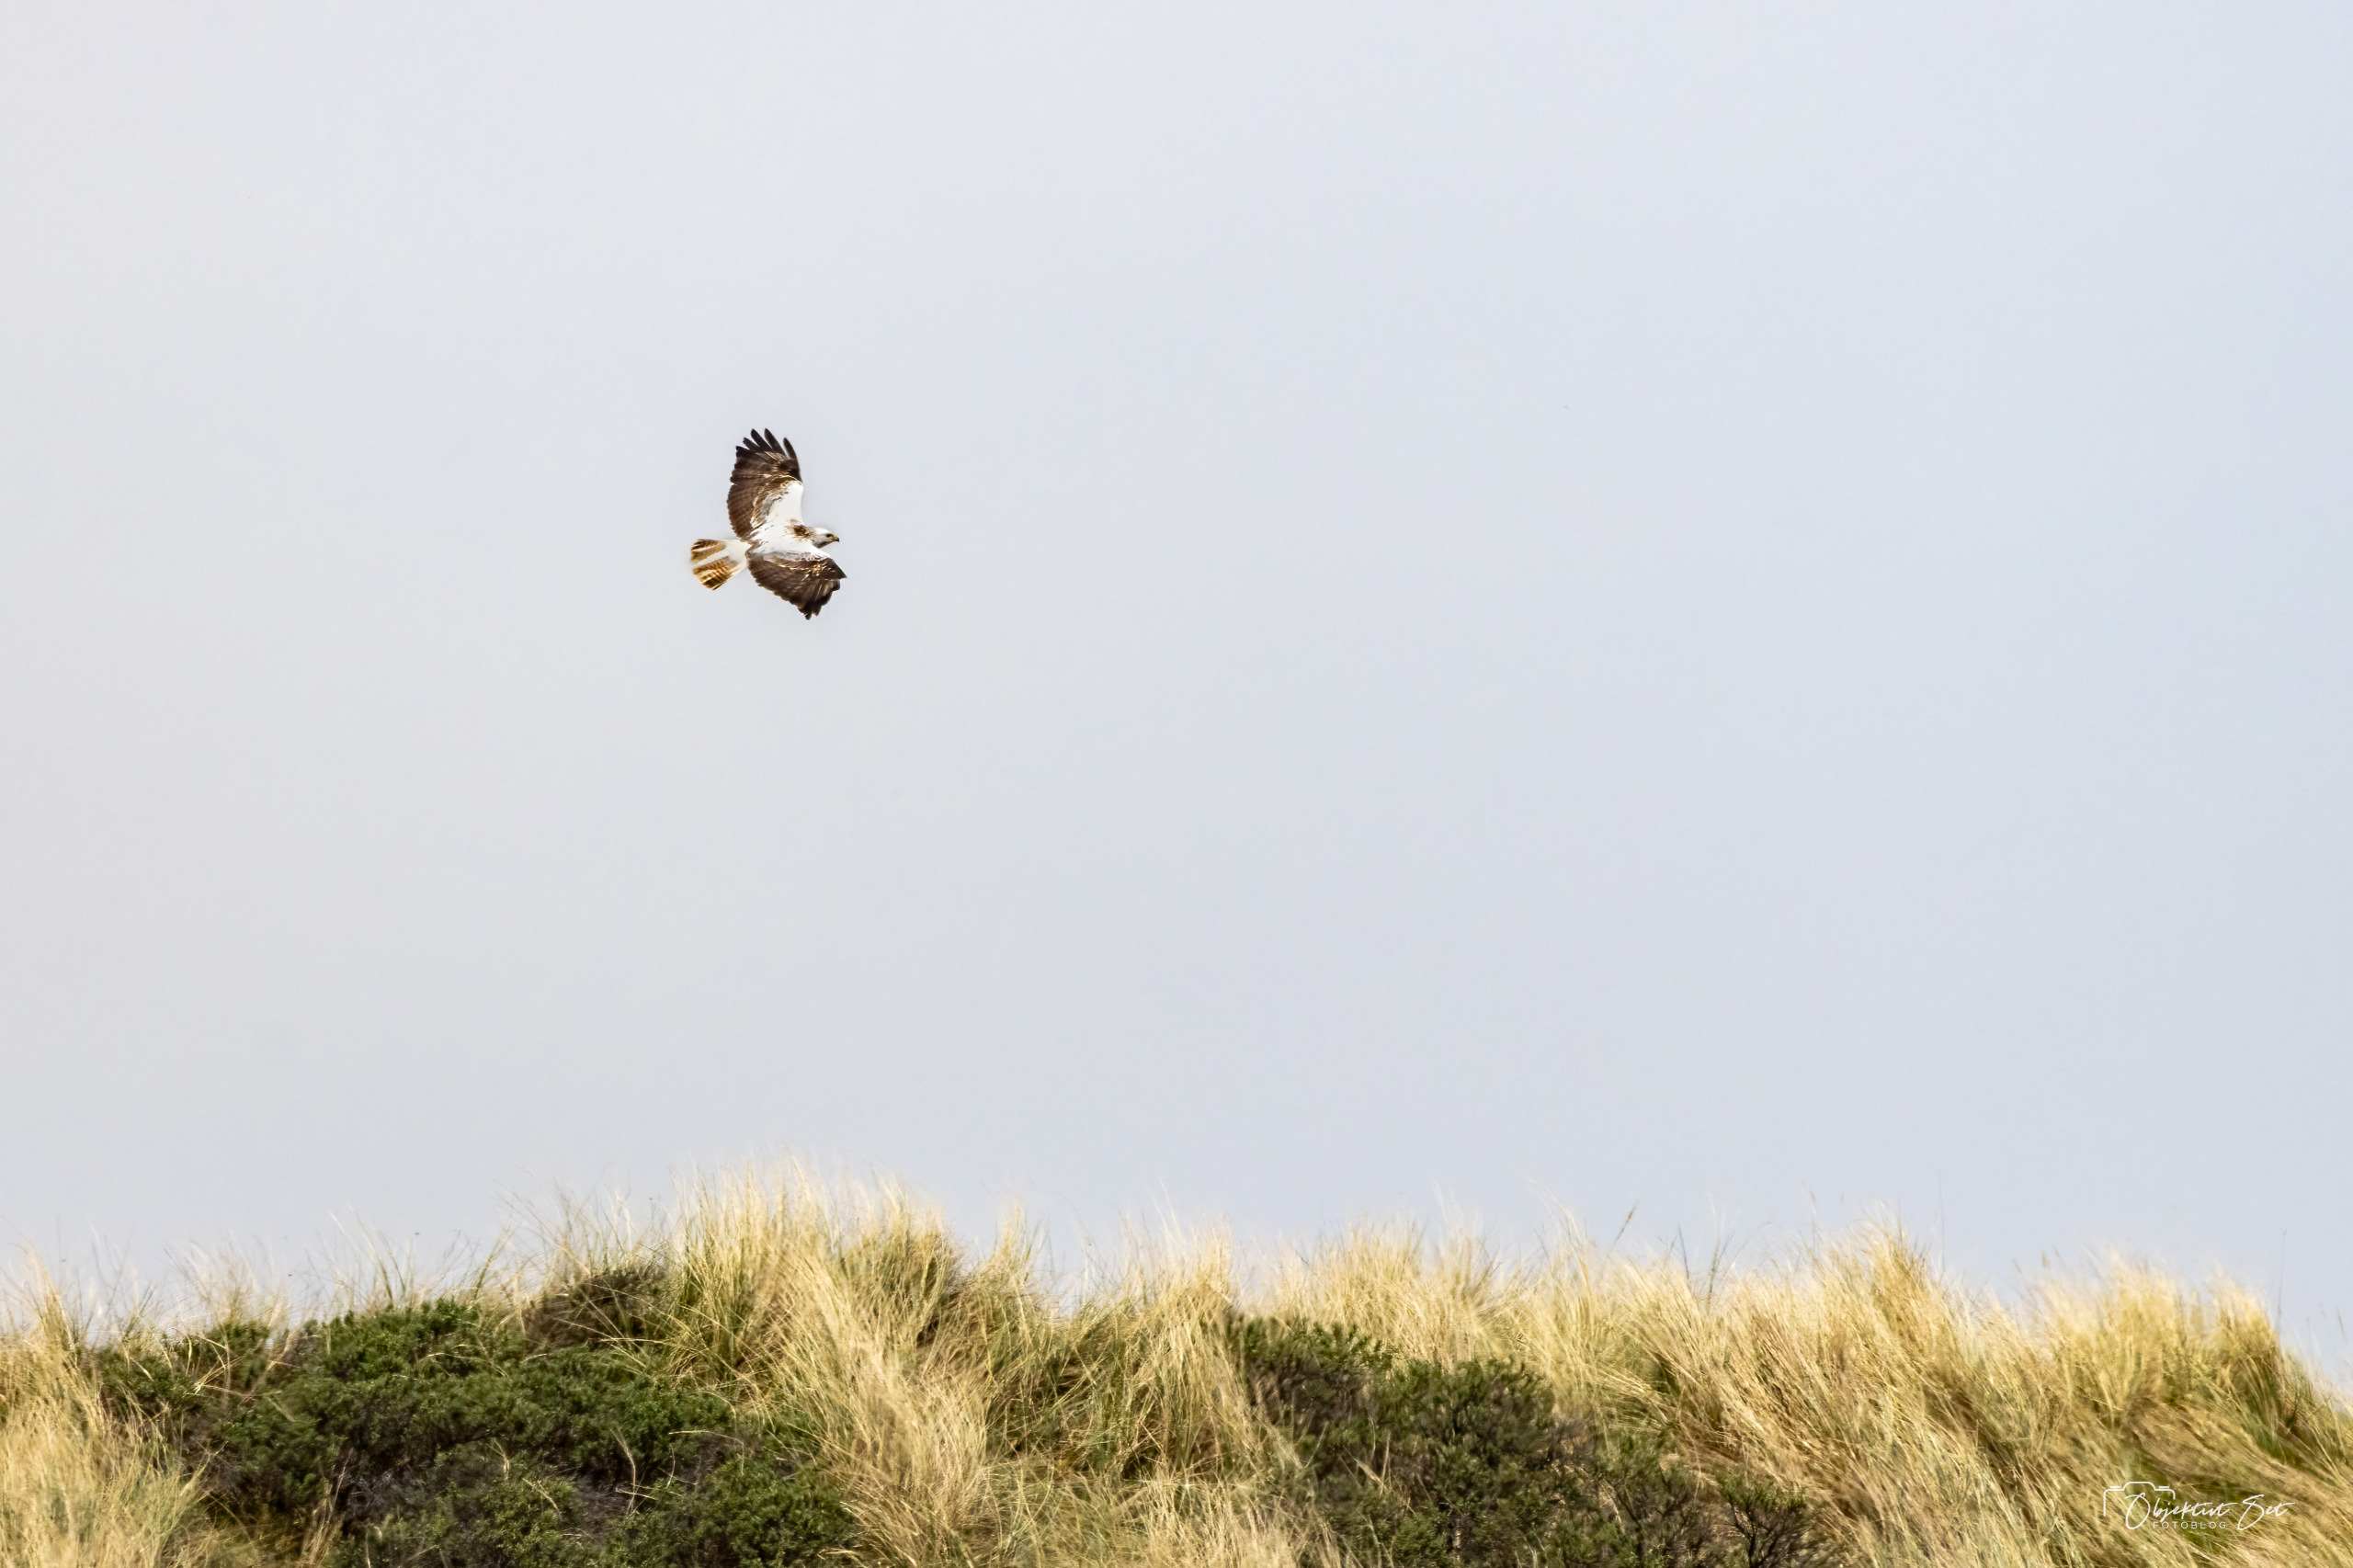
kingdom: Animalia
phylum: Chordata
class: Aves
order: Accipitriformes
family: Accipitridae
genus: Buteo
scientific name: Buteo buteo
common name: Musvåge
